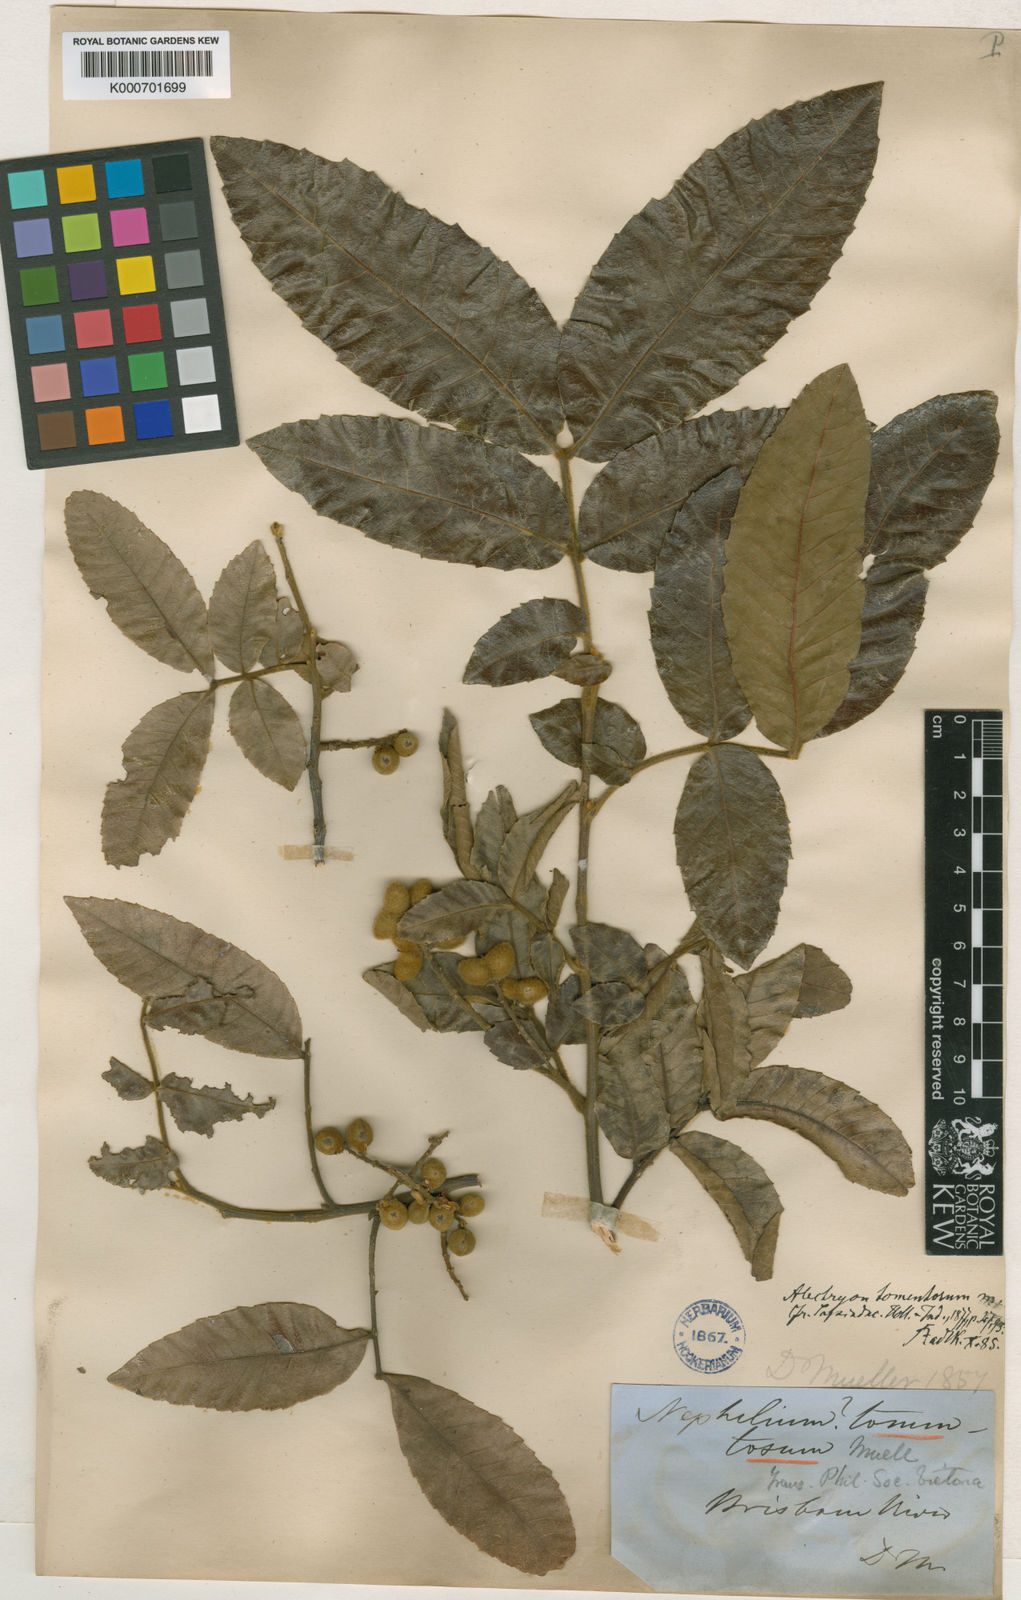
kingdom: Plantae
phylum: Tracheophyta
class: Magnoliopsida
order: Sapindales
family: Sapindaceae
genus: Alectryon
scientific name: Alectryon tomentosus
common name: Bed-jacket
